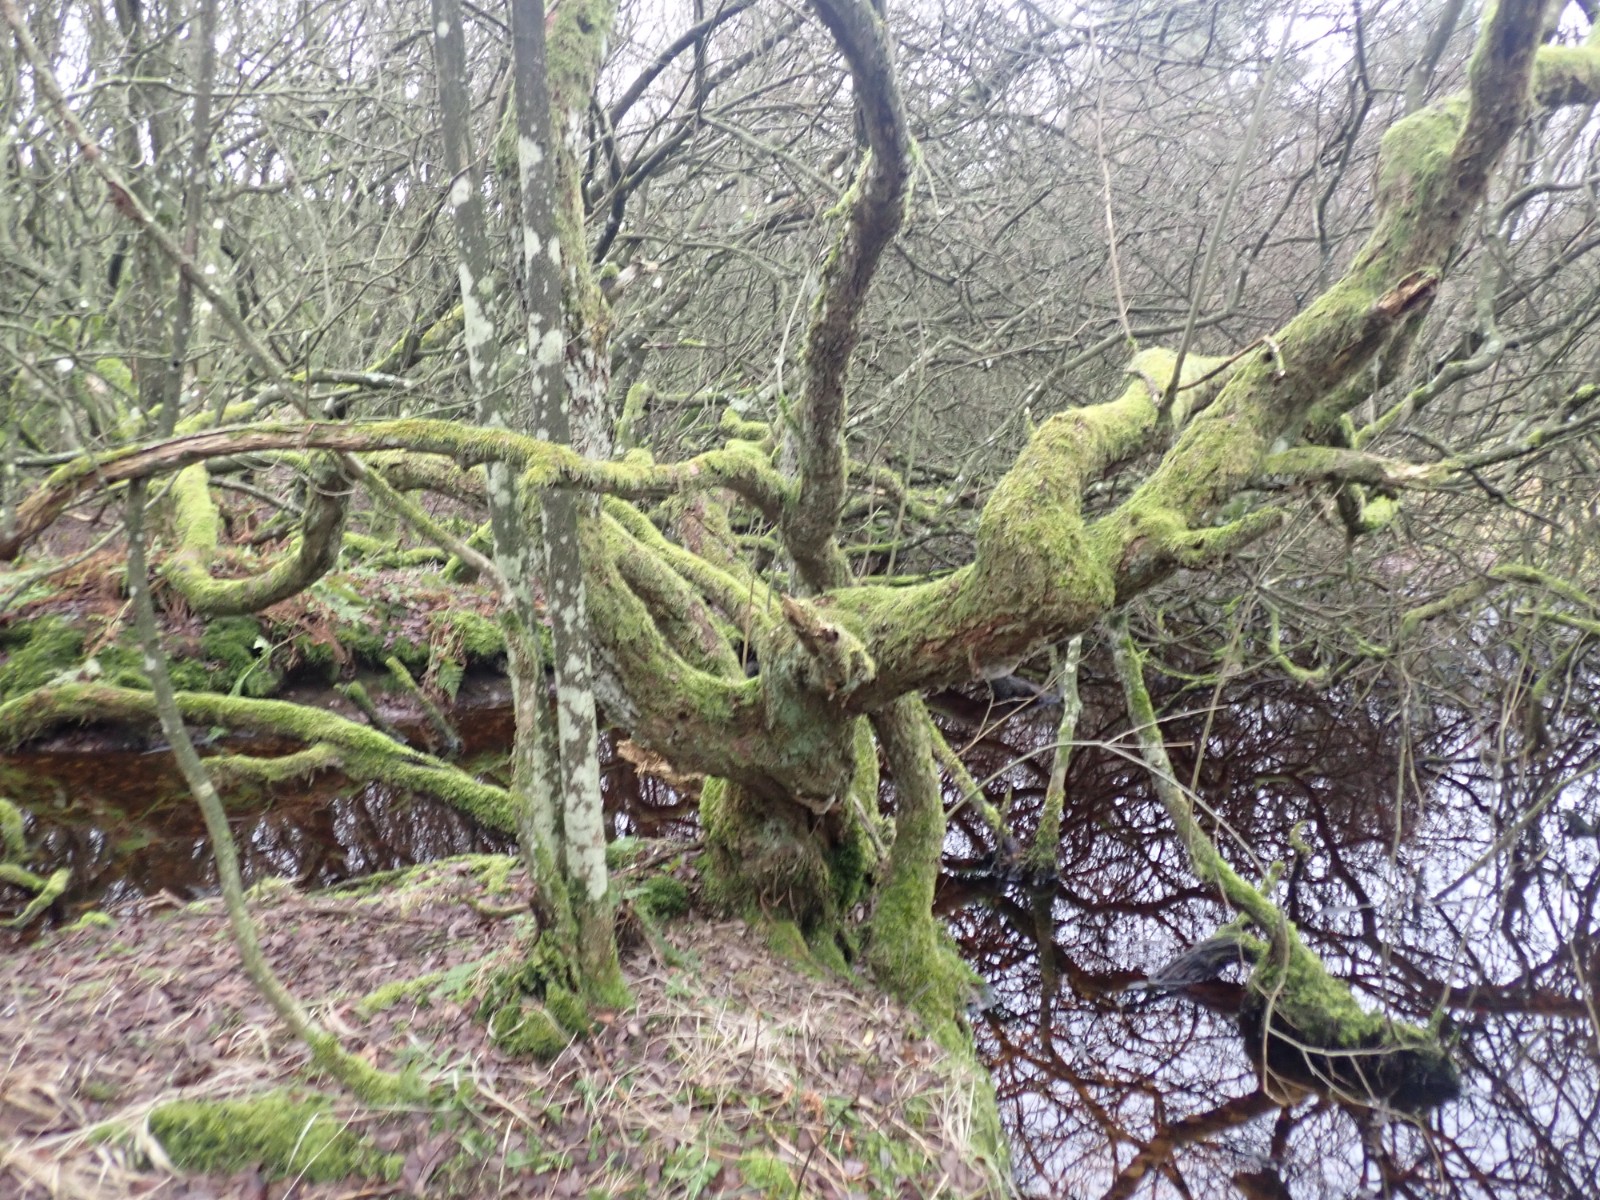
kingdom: Fungi
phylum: Basidiomycota
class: Agaricomycetes
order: Hymenochaetales
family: Hymenochaetaceae
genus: Hydnoporia
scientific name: Hydnoporia tabacina
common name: tobaksbrun ruslædersvamp
